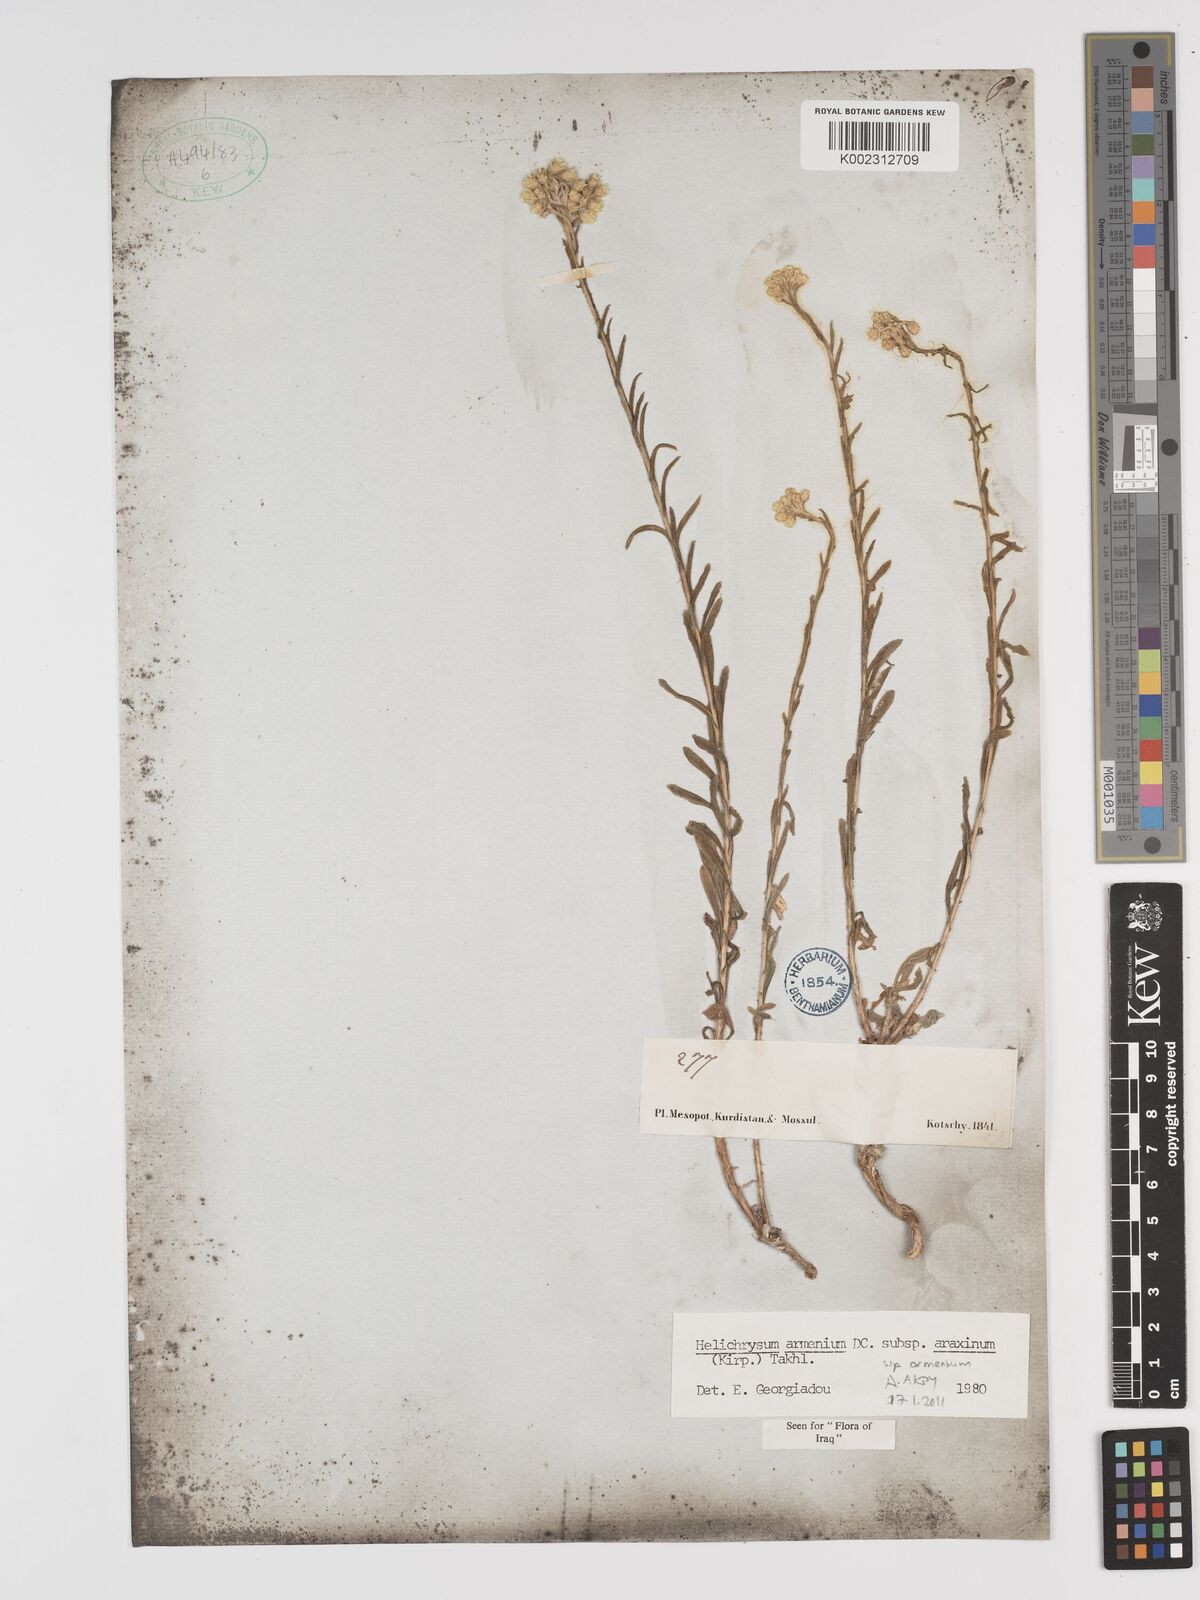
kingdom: Plantae
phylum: Tracheophyta
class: Magnoliopsida
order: Asterales
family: Asteraceae
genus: Helichrysum
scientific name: Helichrysum araxinum
